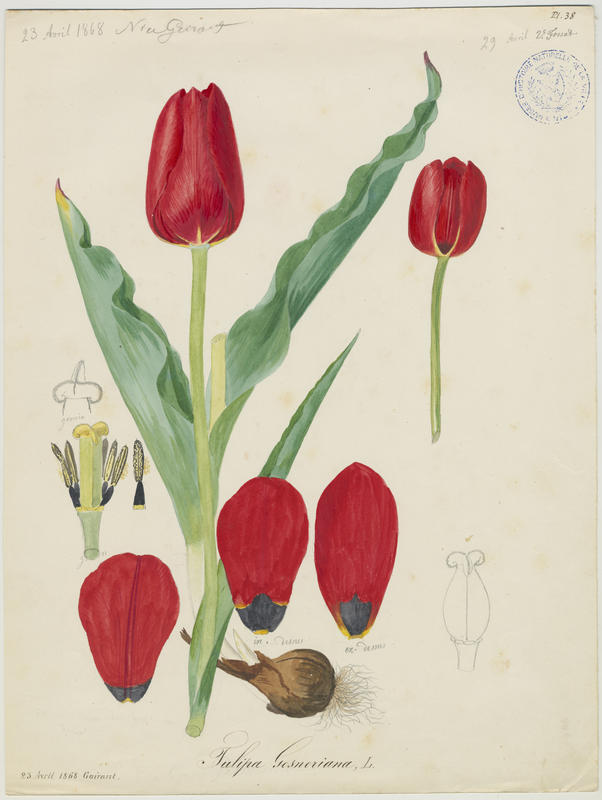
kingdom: Plantae
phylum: Tracheophyta
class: Liliopsida
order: Liliales
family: Liliaceae
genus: Tulipa
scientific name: Tulipa gesneriana
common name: Garden tulip
